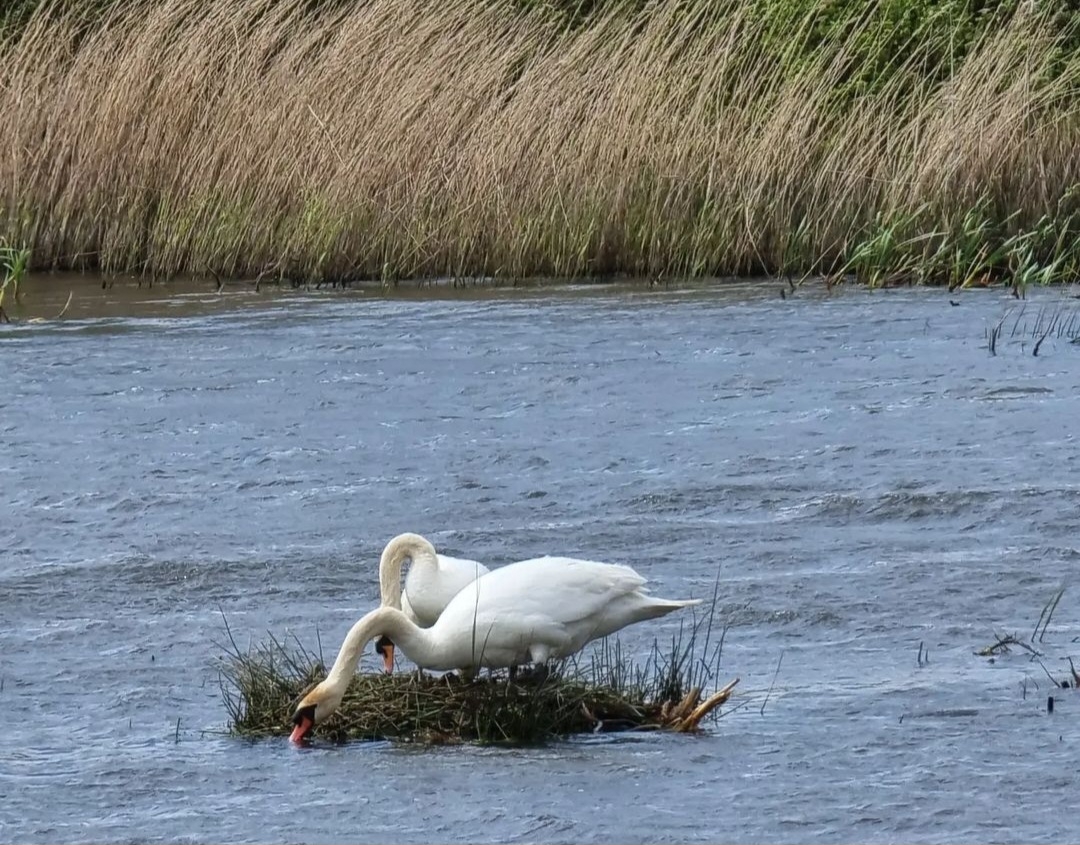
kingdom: Animalia
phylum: Chordata
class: Aves
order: Anseriformes
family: Anatidae
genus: Cygnus
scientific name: Cygnus olor
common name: Knopsvane
